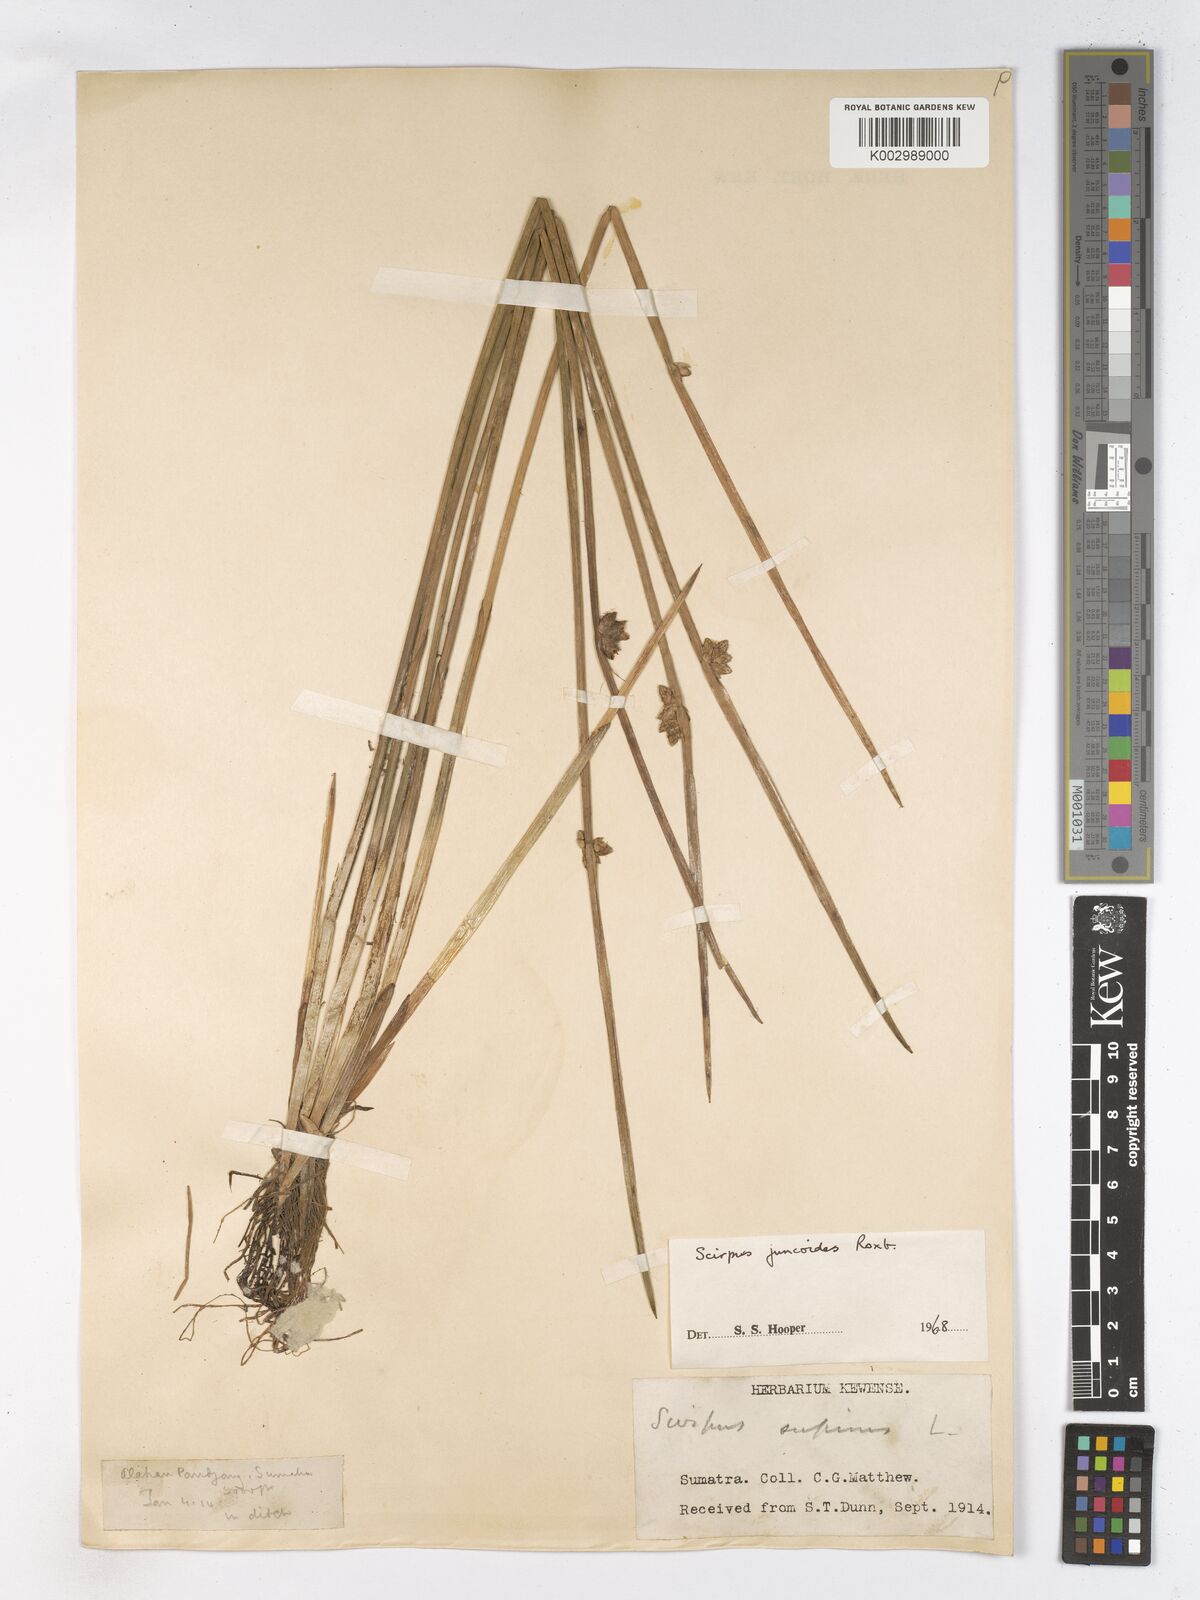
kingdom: Plantae
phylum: Tracheophyta
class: Liliopsida
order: Poales
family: Cyperaceae
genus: Schoenoplectiella
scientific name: Schoenoplectiella juncoides
